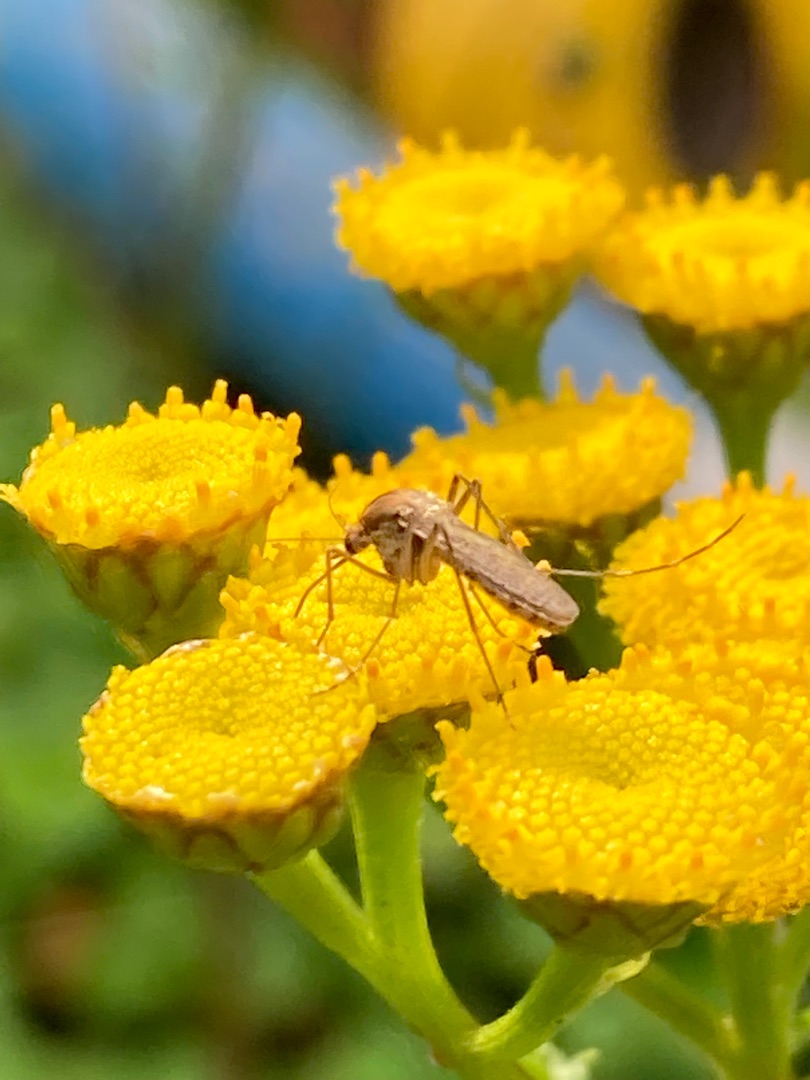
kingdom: Animalia
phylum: Arthropoda
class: Insecta
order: Diptera
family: Culicidae
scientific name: Culicidae
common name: Stikmyg
